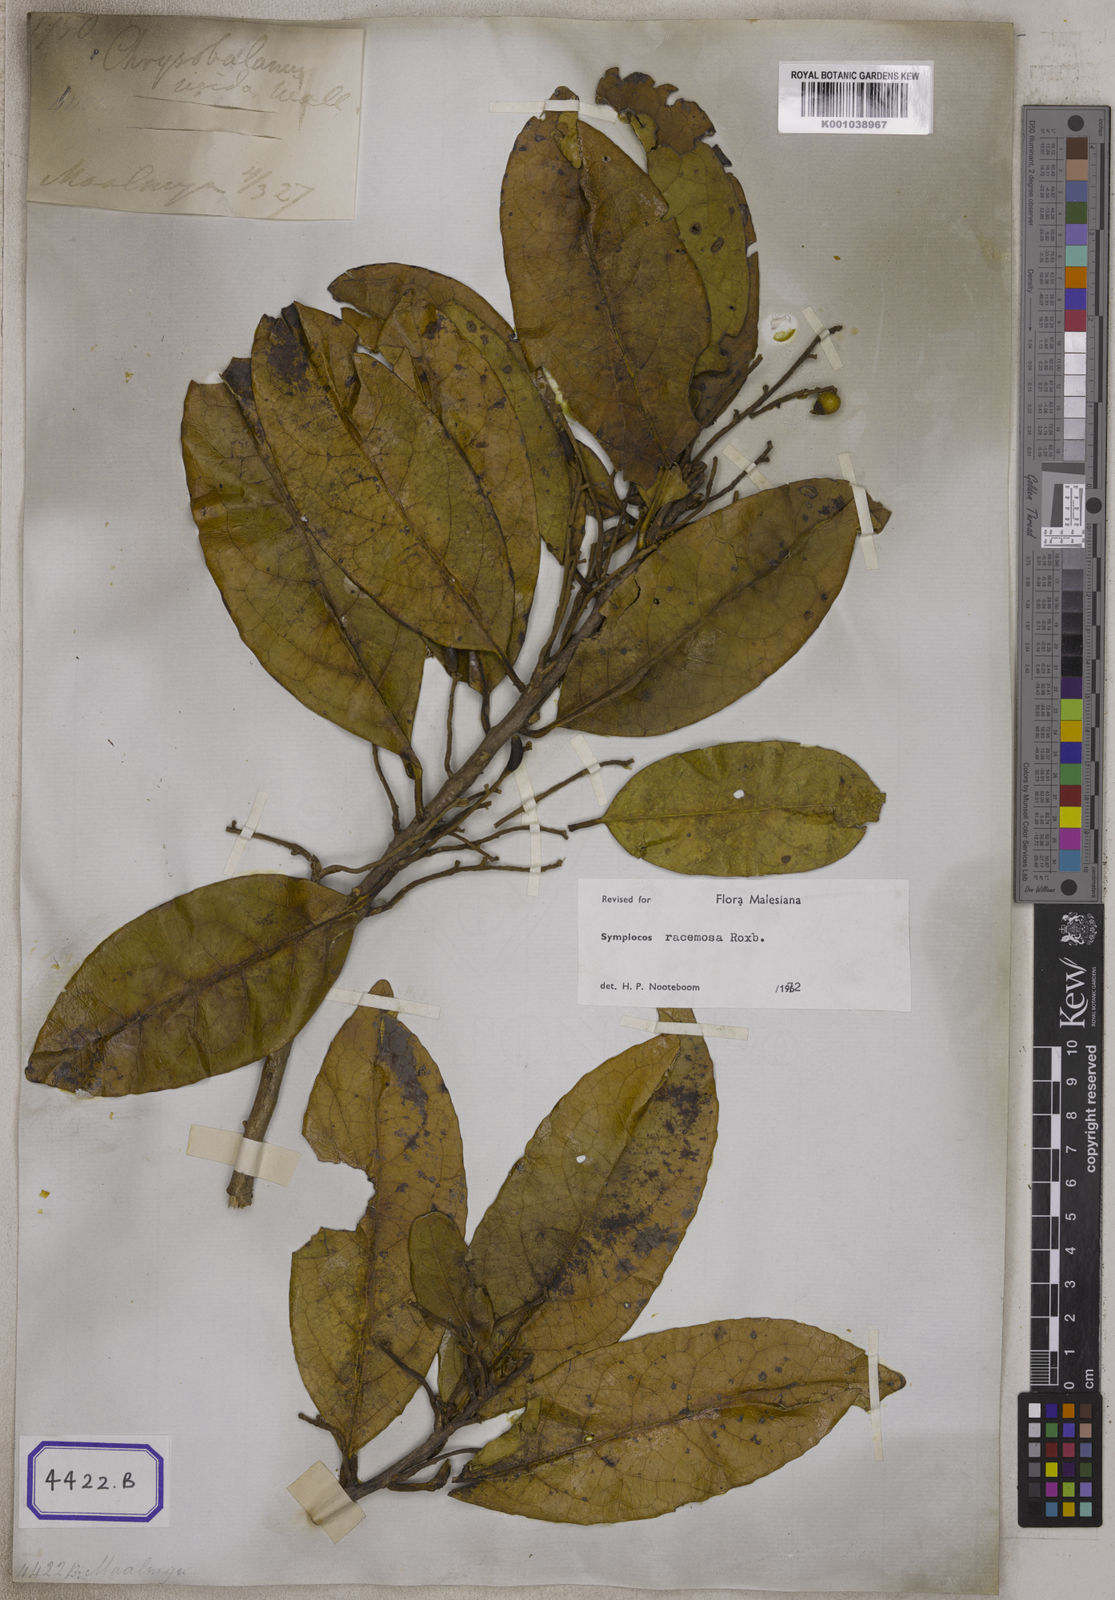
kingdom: Plantae
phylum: Tracheophyta
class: Magnoliopsida
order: Ericales
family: Symplocaceae
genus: Symplocos
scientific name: Symplocos
